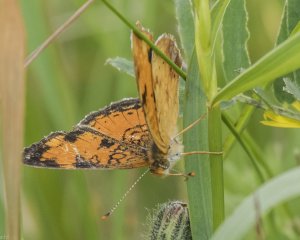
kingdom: Animalia
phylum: Arthropoda
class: Insecta
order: Lepidoptera
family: Nymphalidae
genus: Phyciodes
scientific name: Phyciodes tharos
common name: Northern Crescent
